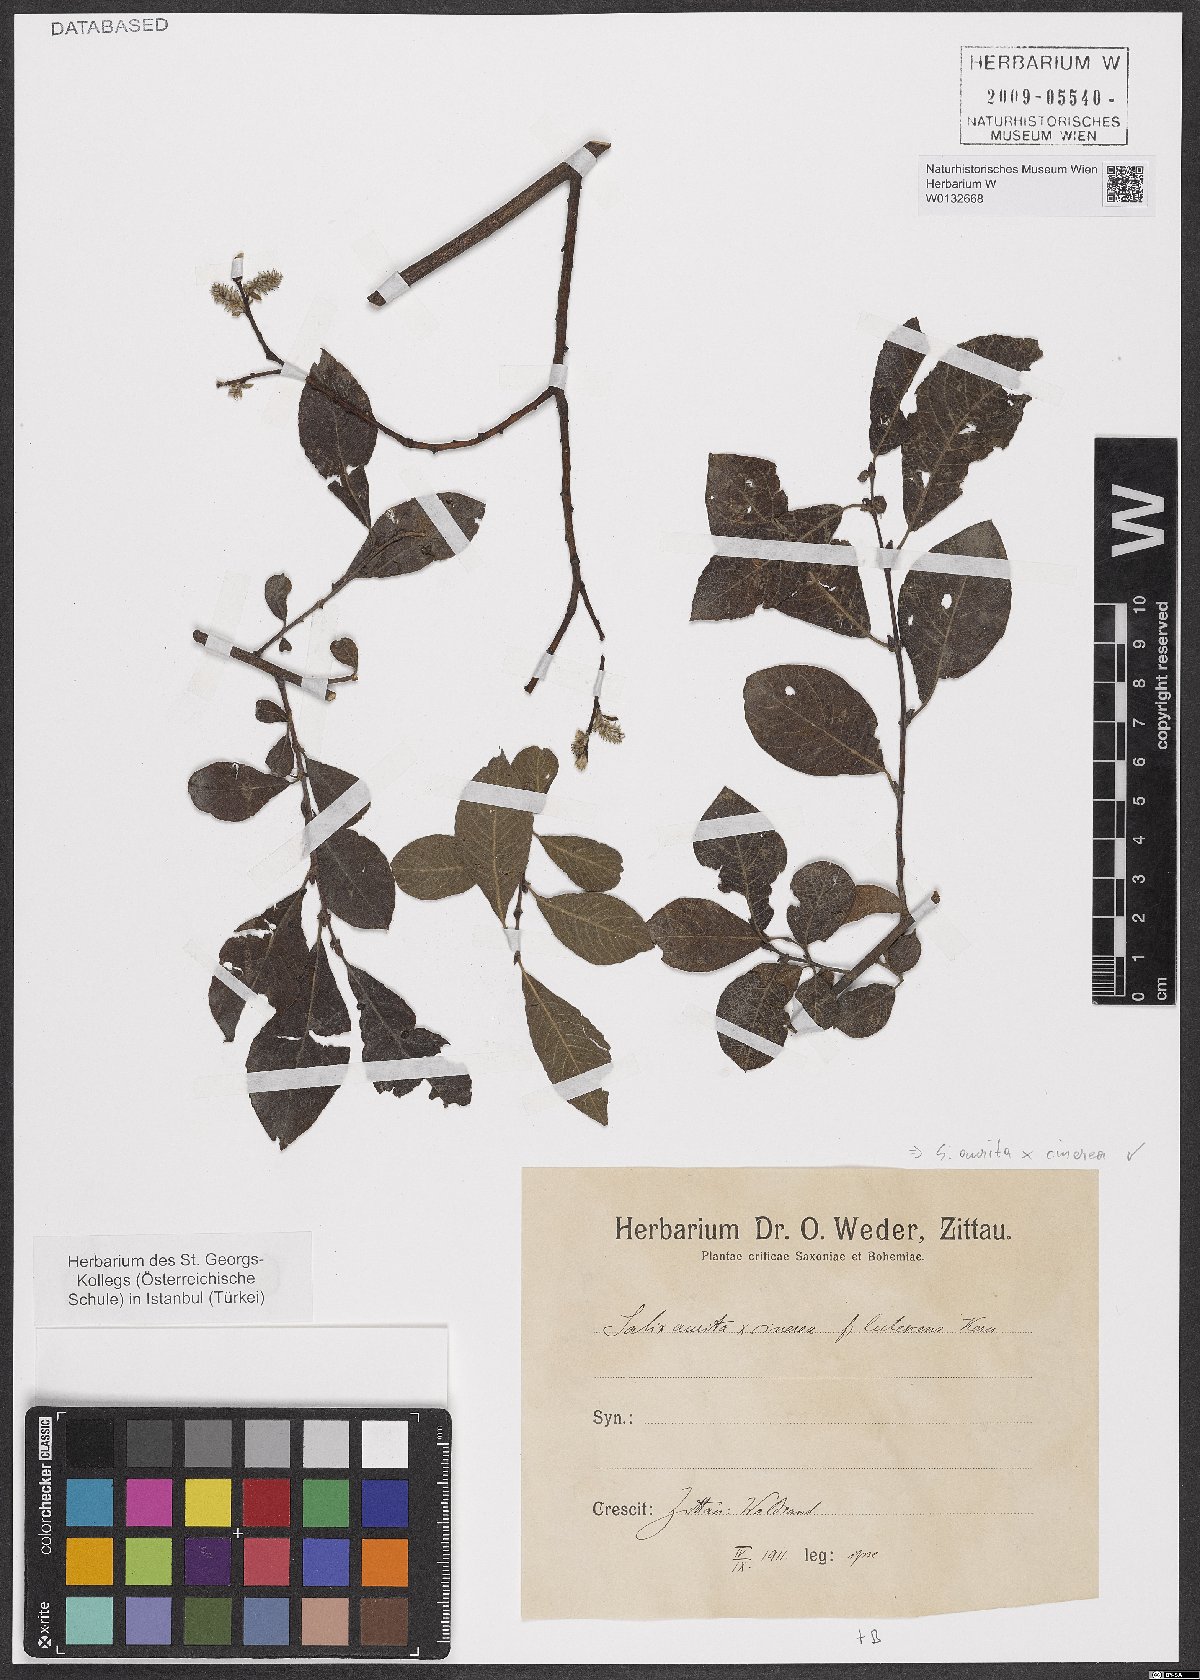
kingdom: Plantae
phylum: Tracheophyta
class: Magnoliopsida
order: Malpighiales
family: Salicaceae
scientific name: Salicaceae
